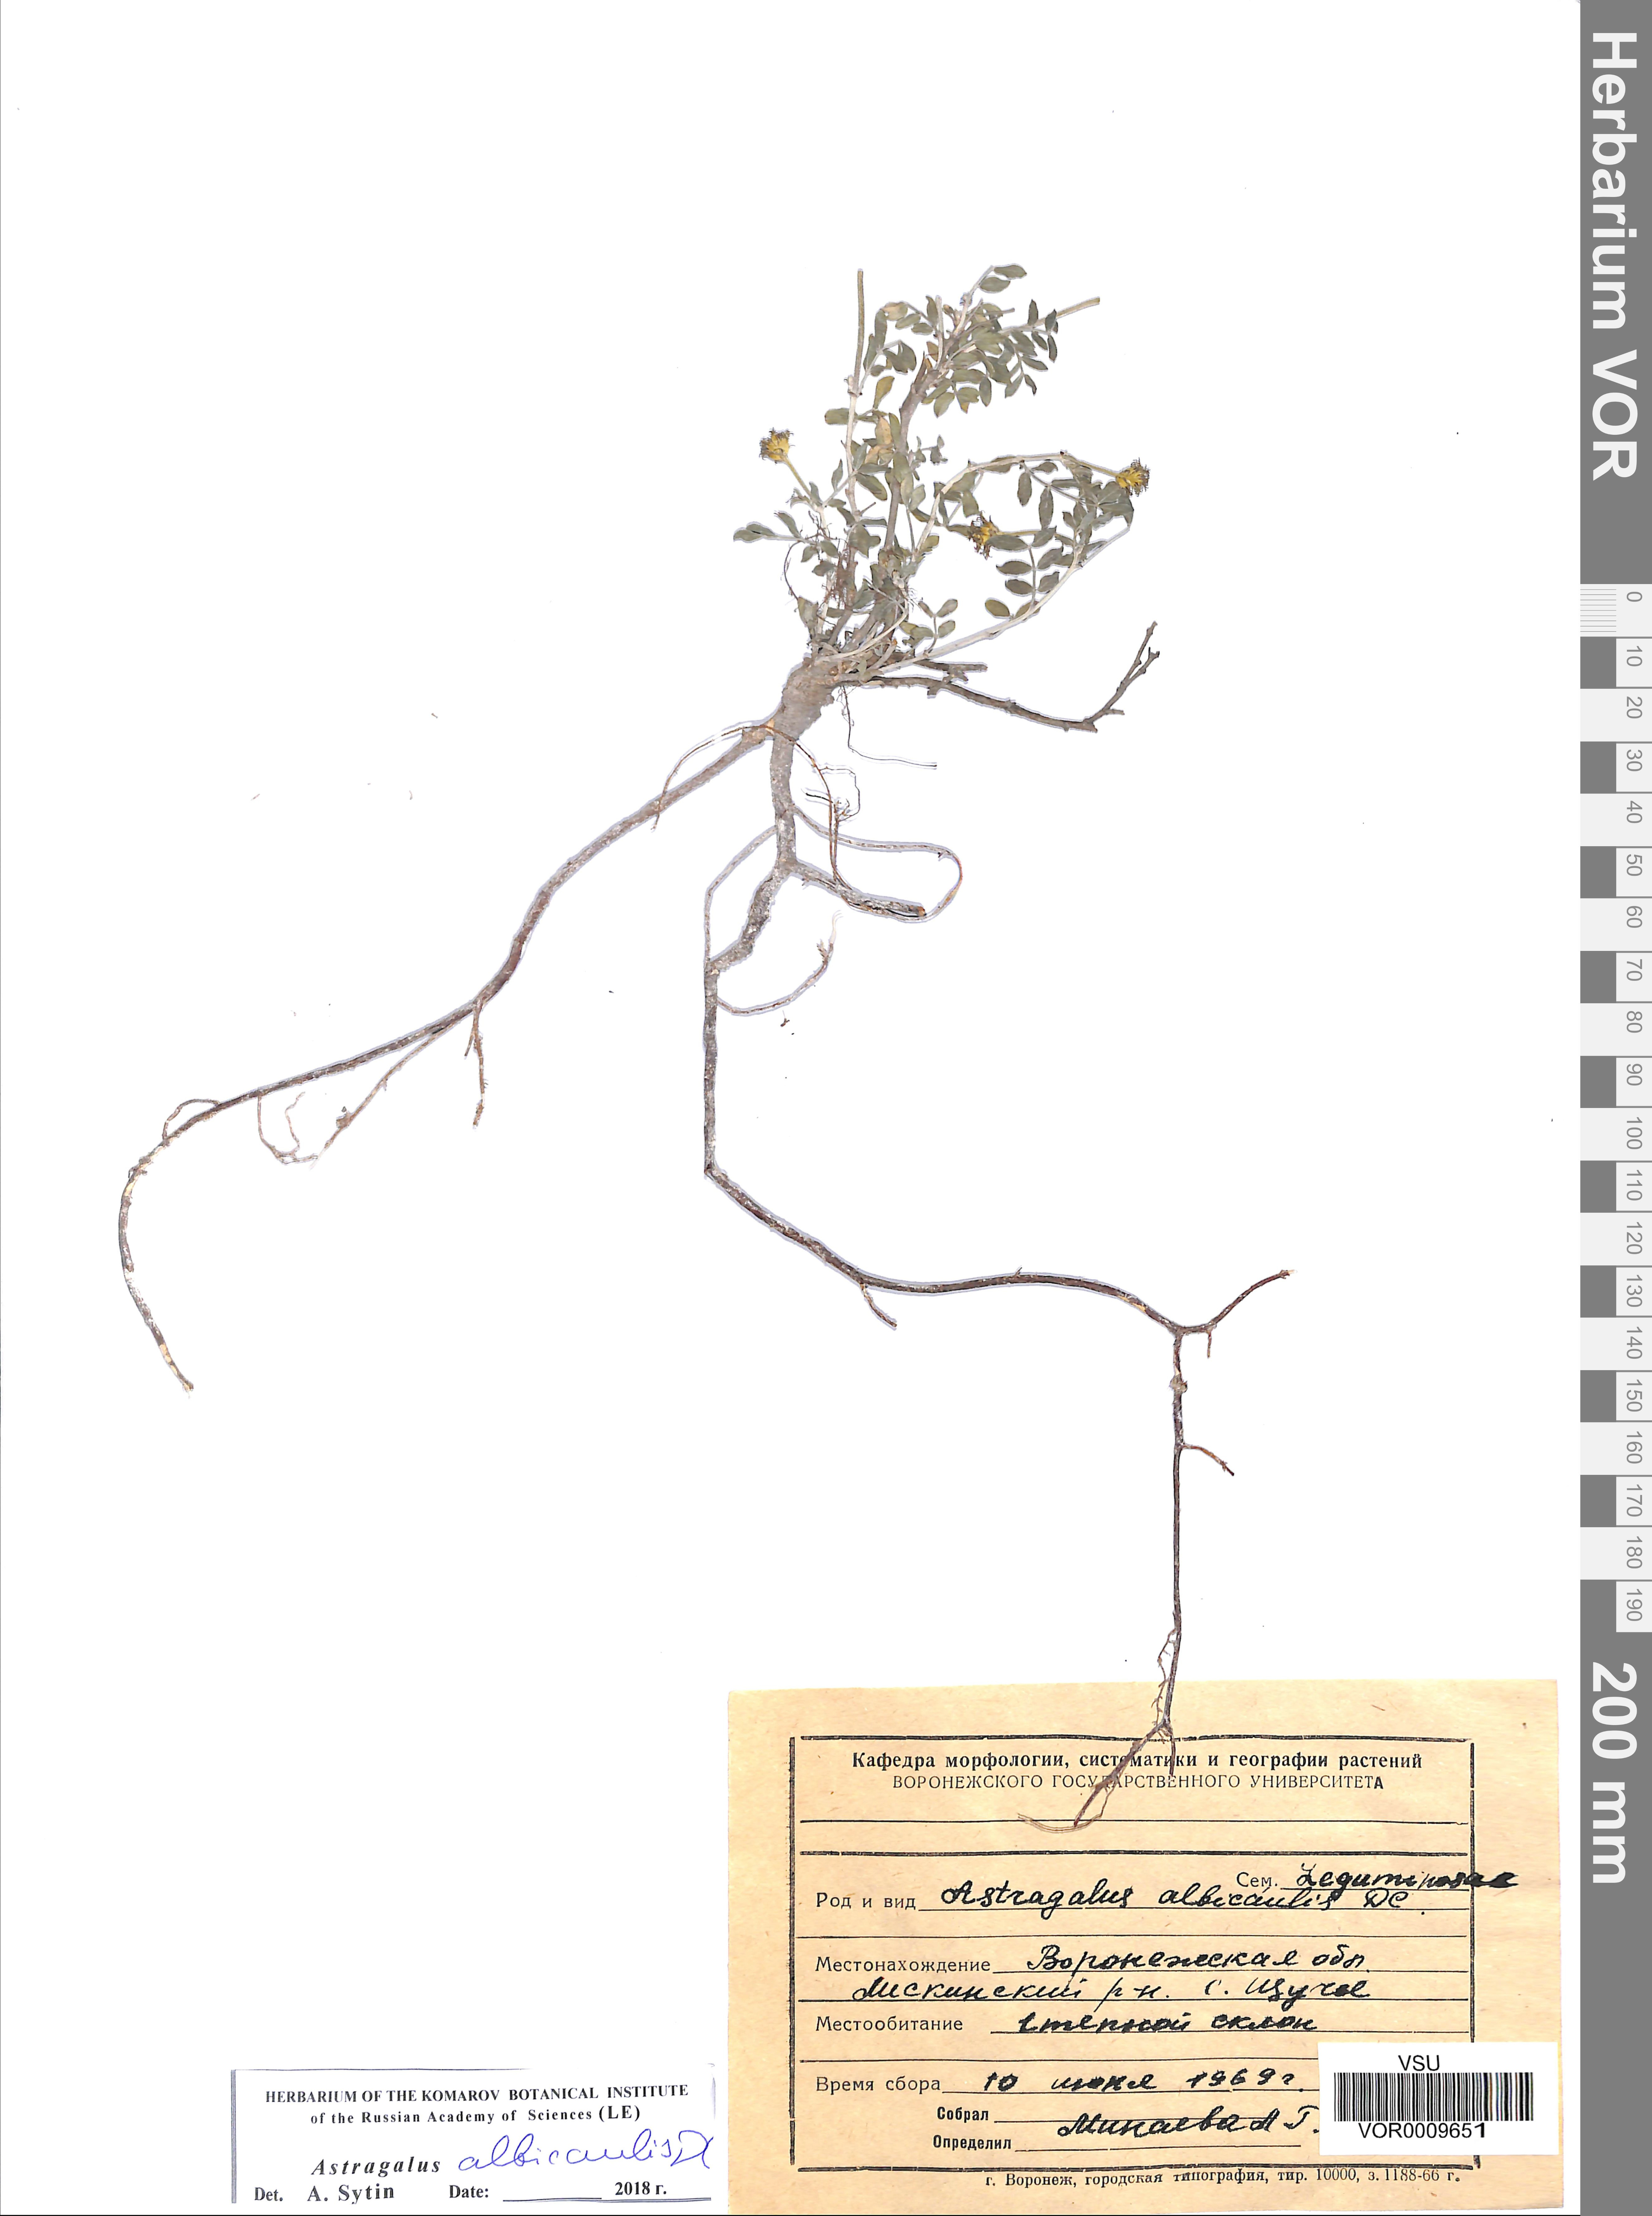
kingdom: Plantae
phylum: Tracheophyta
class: Magnoliopsida
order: Fabales
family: Fabaceae
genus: Astragalus
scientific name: Astragalus albicaulis
